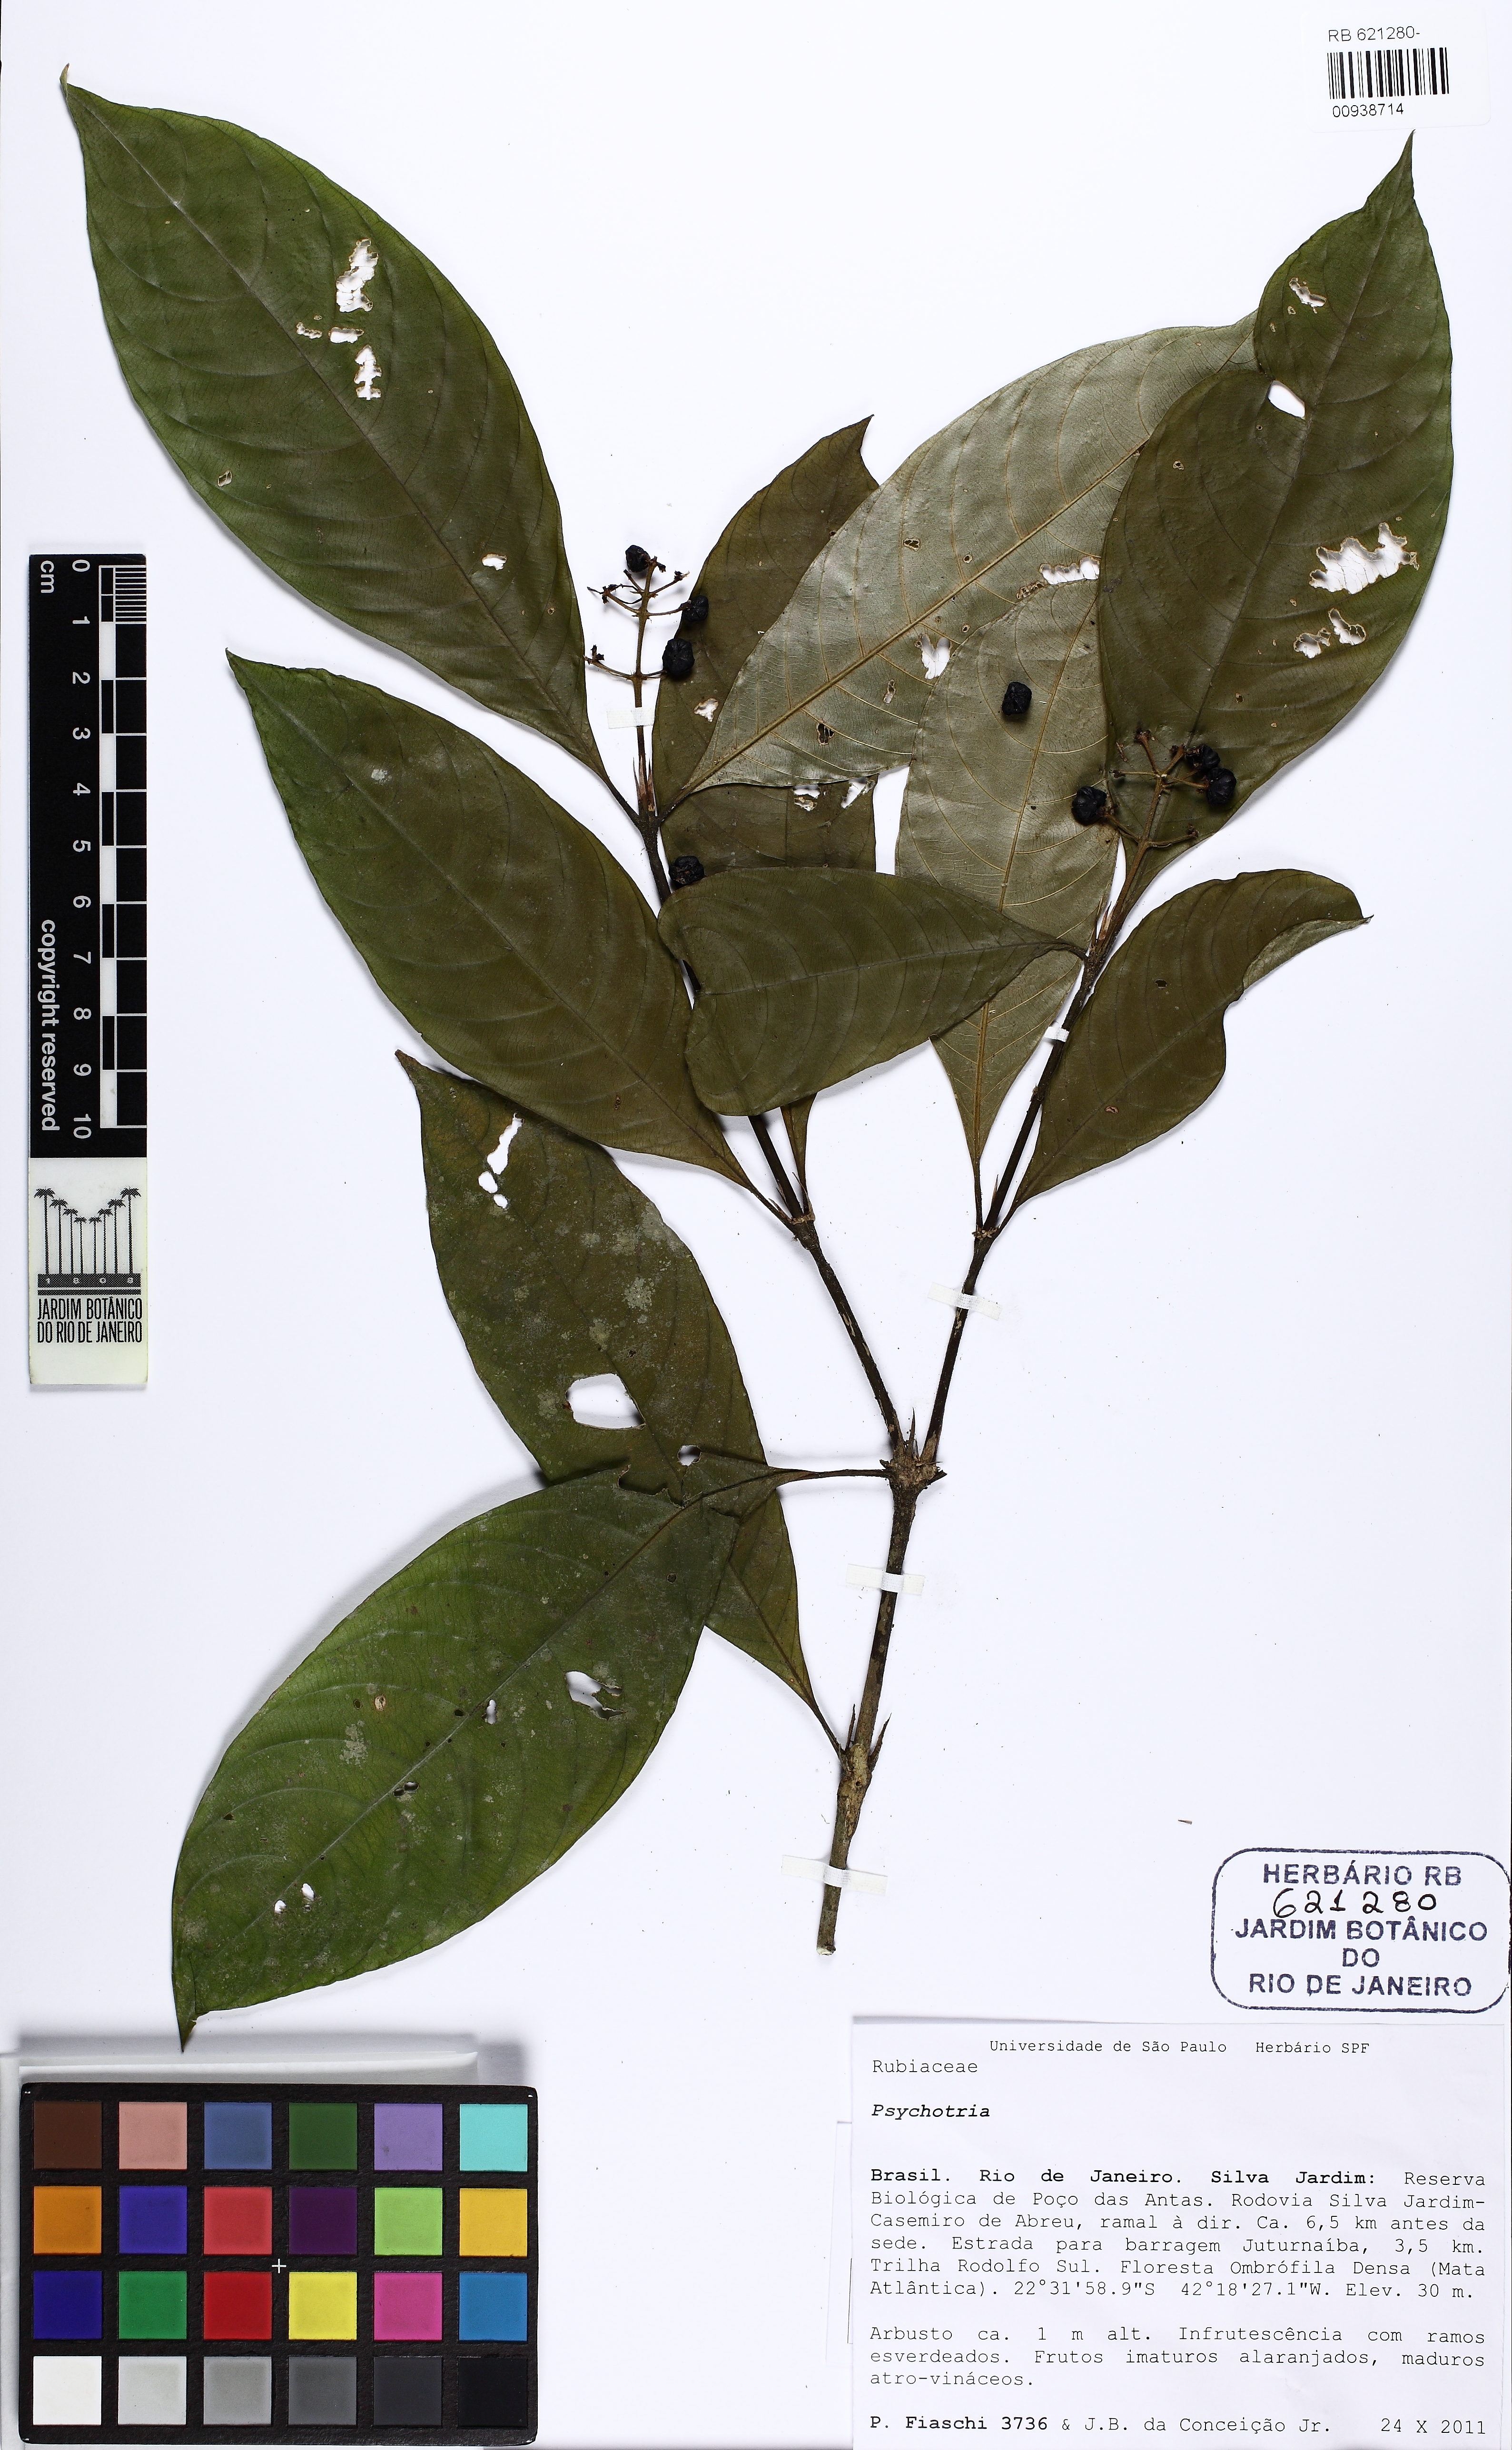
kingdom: Plantae
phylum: Tracheophyta
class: Magnoliopsida
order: Gentianales
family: Rubiaceae
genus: Palicourea
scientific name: Palicourea racemosa
